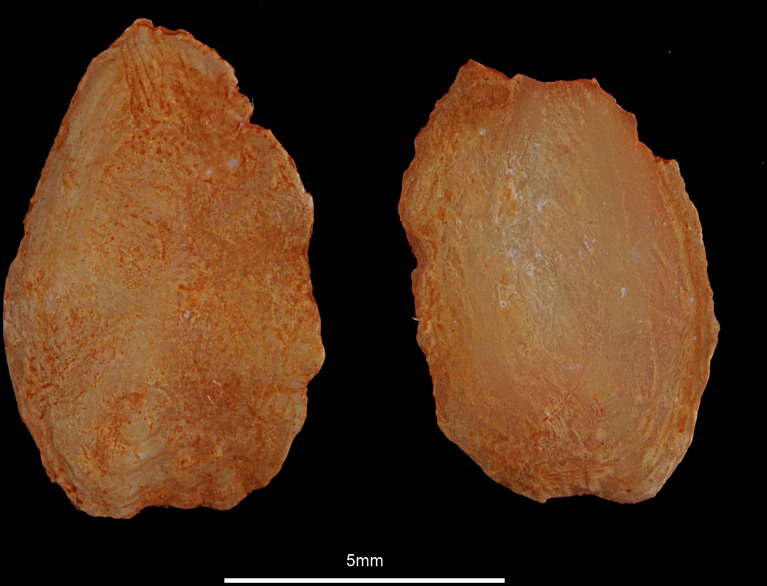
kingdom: Animalia
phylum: Chordata
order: Pleuronectiformes
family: Pleuronectidae
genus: Hippoglossus
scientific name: Hippoglossus hippoglossus
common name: Atlantic halibut
